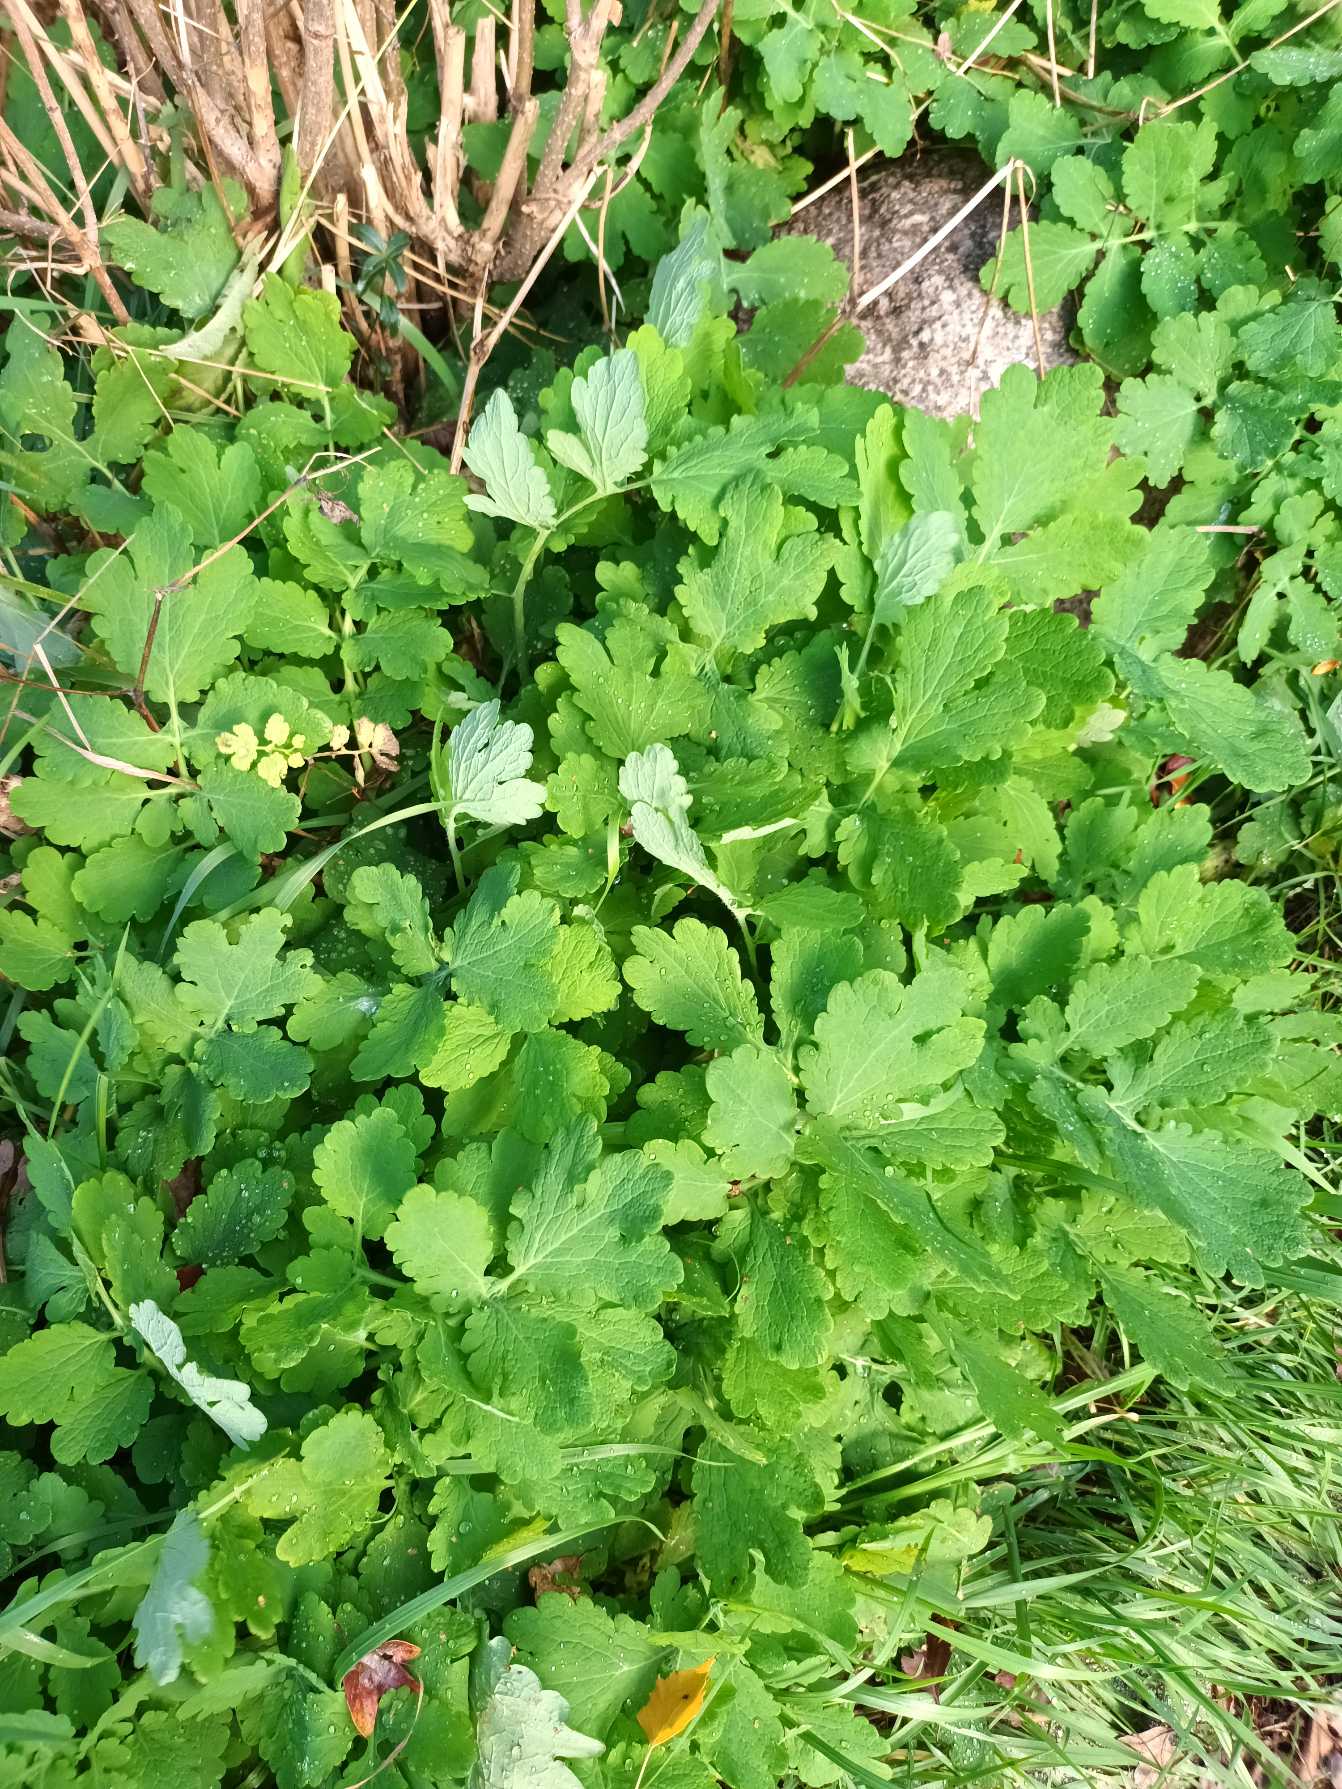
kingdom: Plantae
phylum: Tracheophyta
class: Magnoliopsida
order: Ranunculales
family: Papaveraceae
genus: Chelidonium
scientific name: Chelidonium majus
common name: Svaleurt
